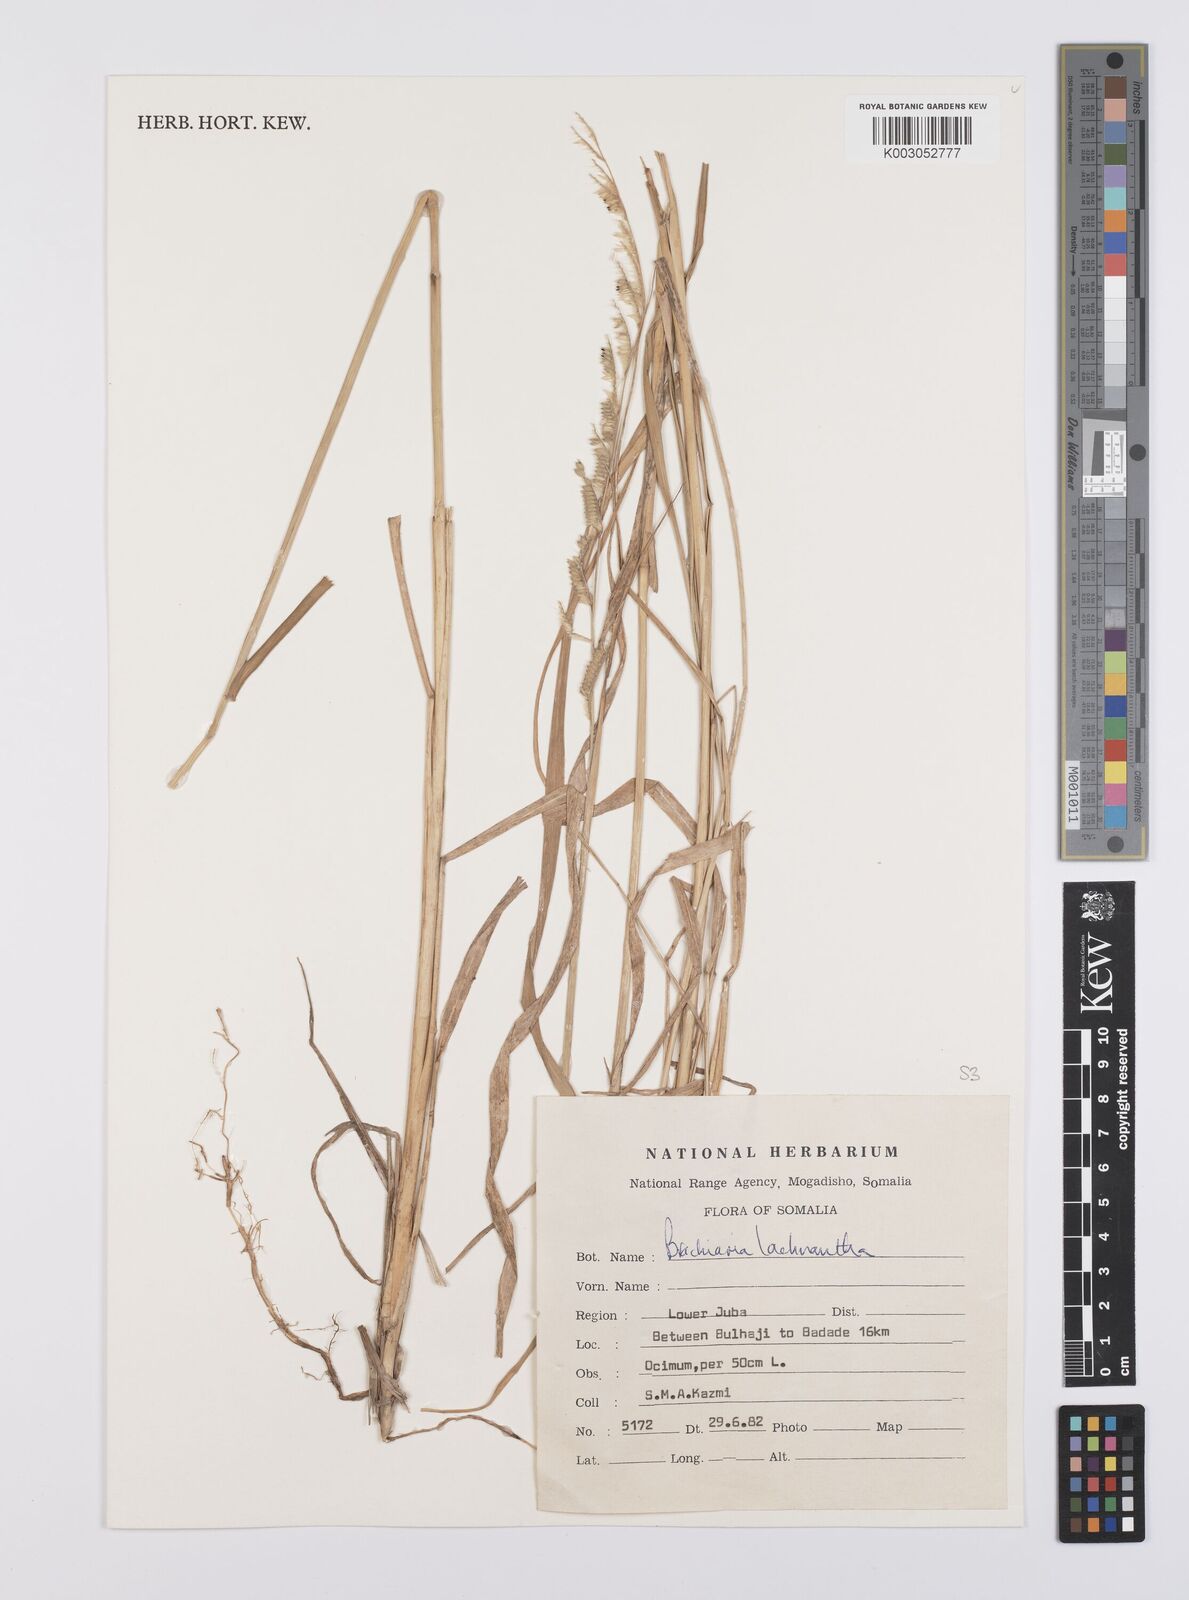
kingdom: Plantae
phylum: Tracheophyta
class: Liliopsida
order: Poales
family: Poaceae
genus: Urochloa
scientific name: Urochloa lachnantha
